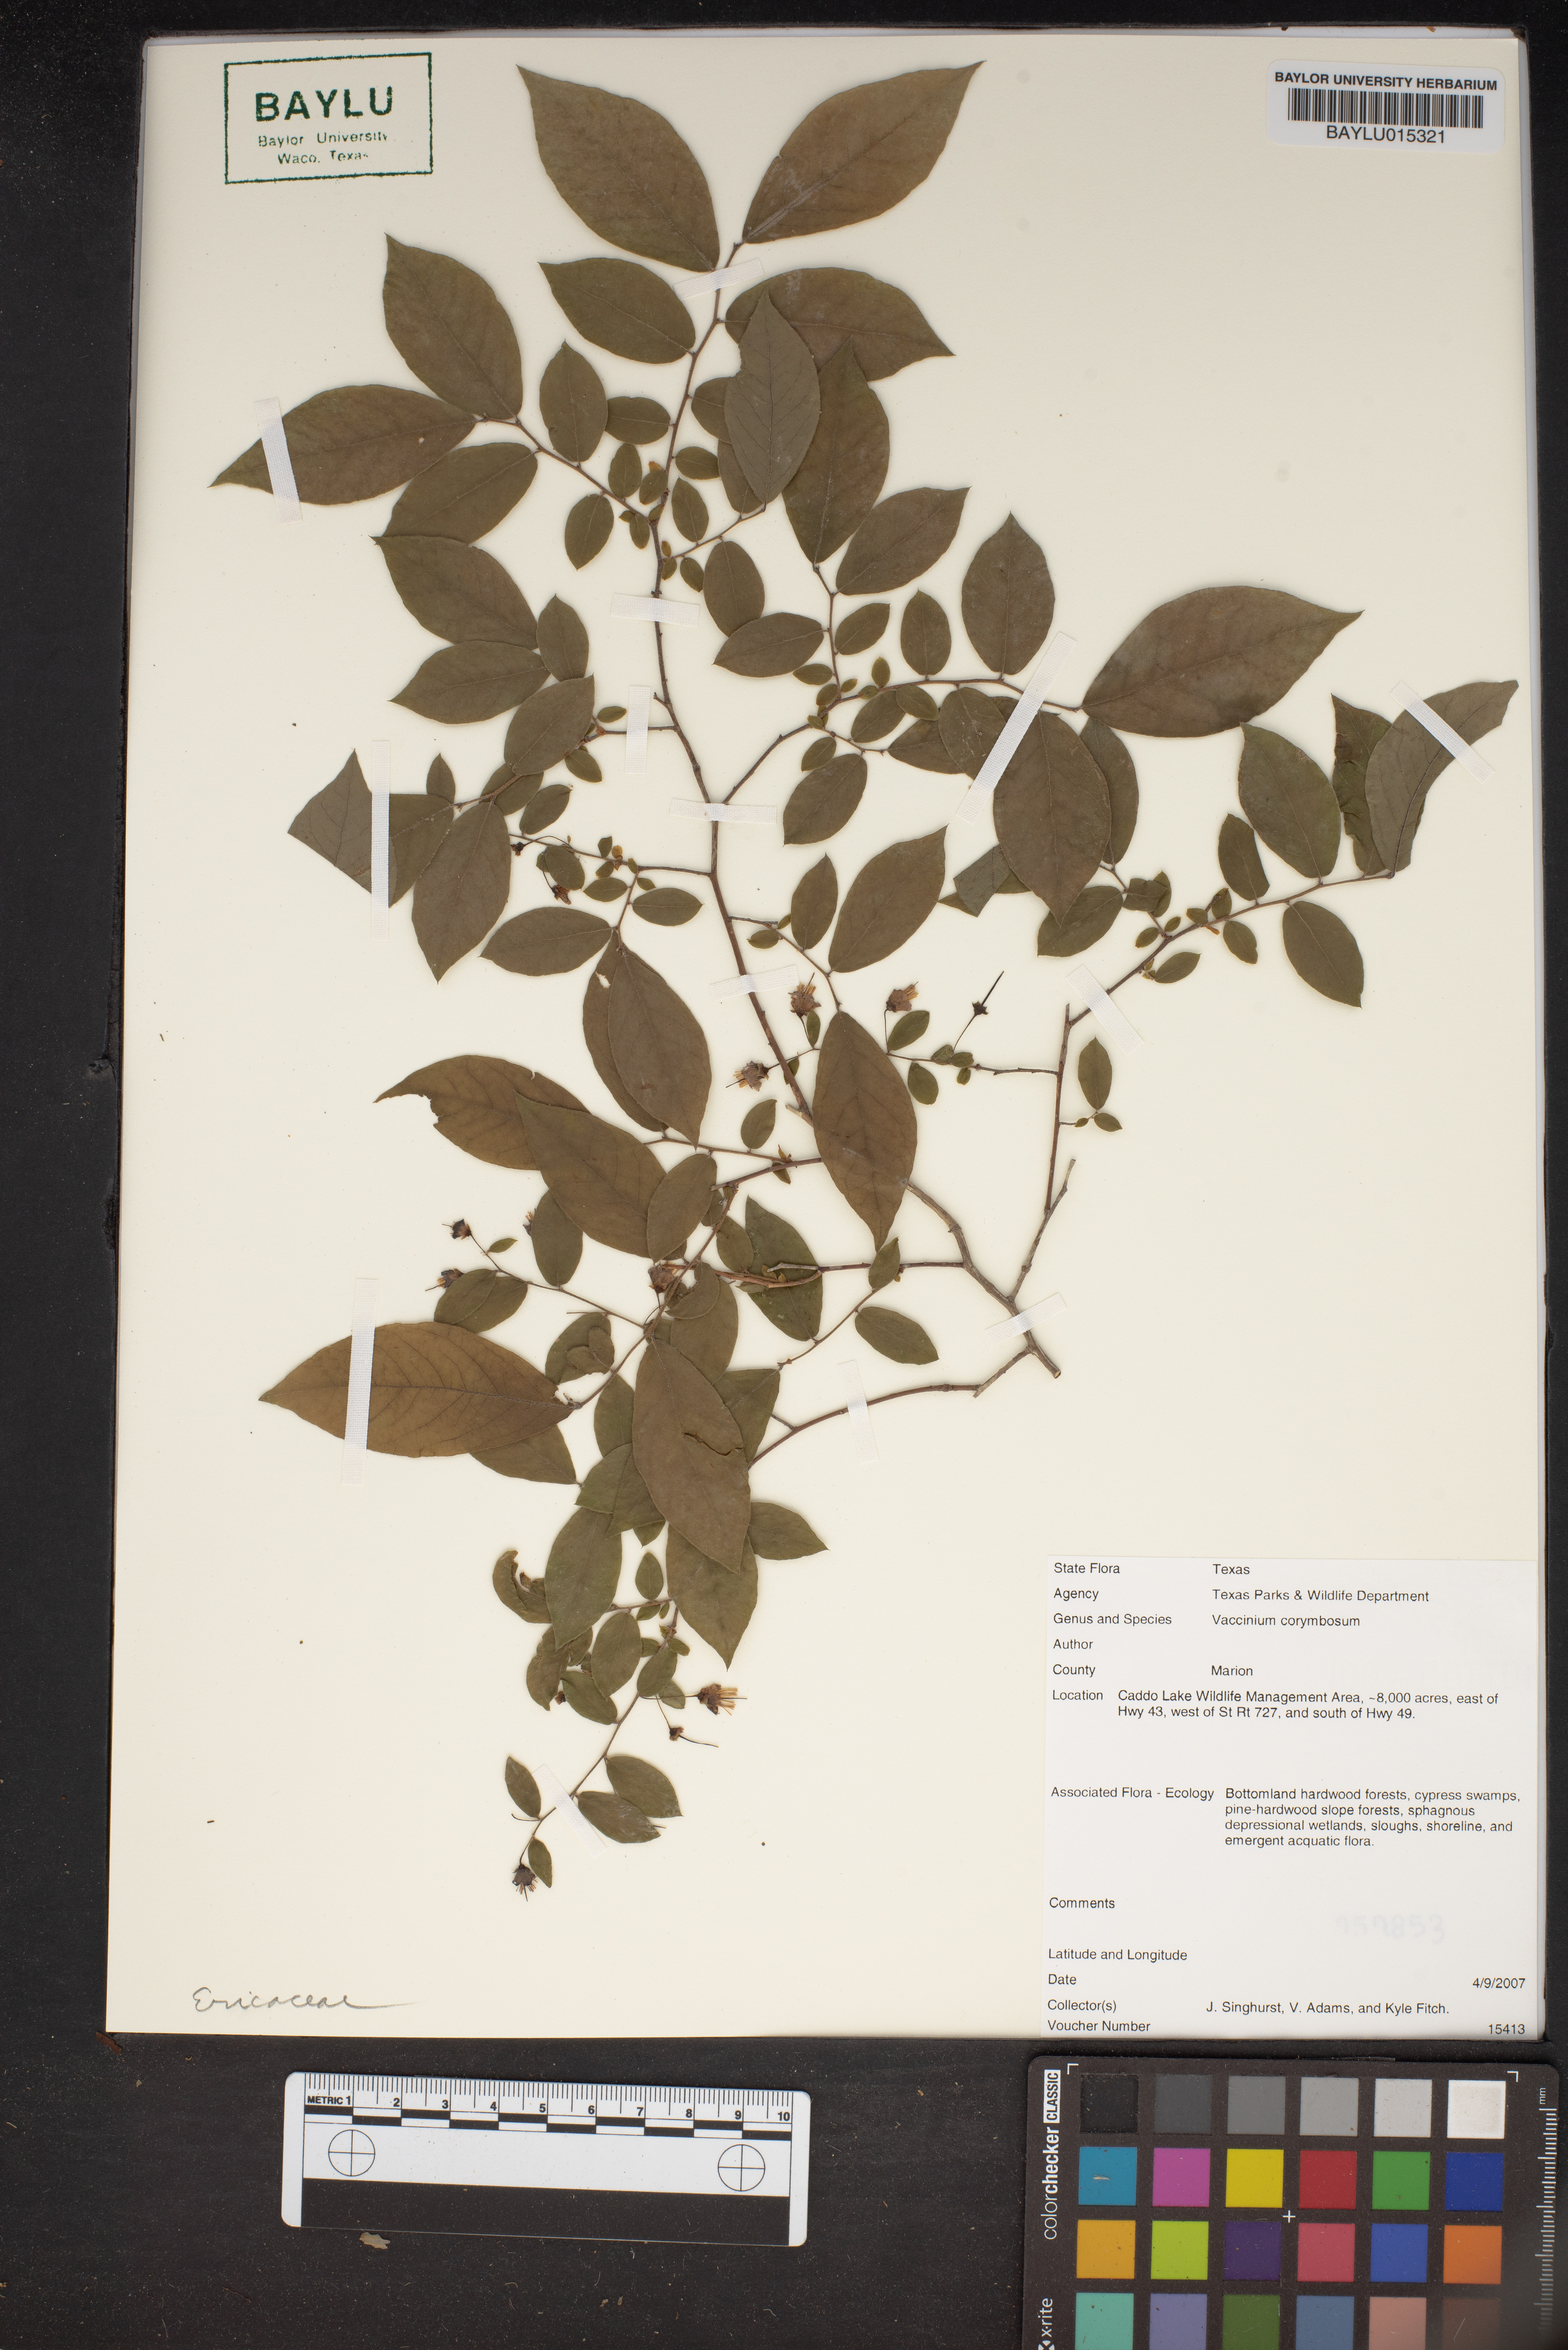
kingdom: Plantae
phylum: Tracheophyta
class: Magnoliopsida
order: Ericales
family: Ericaceae
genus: Vaccinium
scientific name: Vaccinium corymbosum
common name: Blueberry
